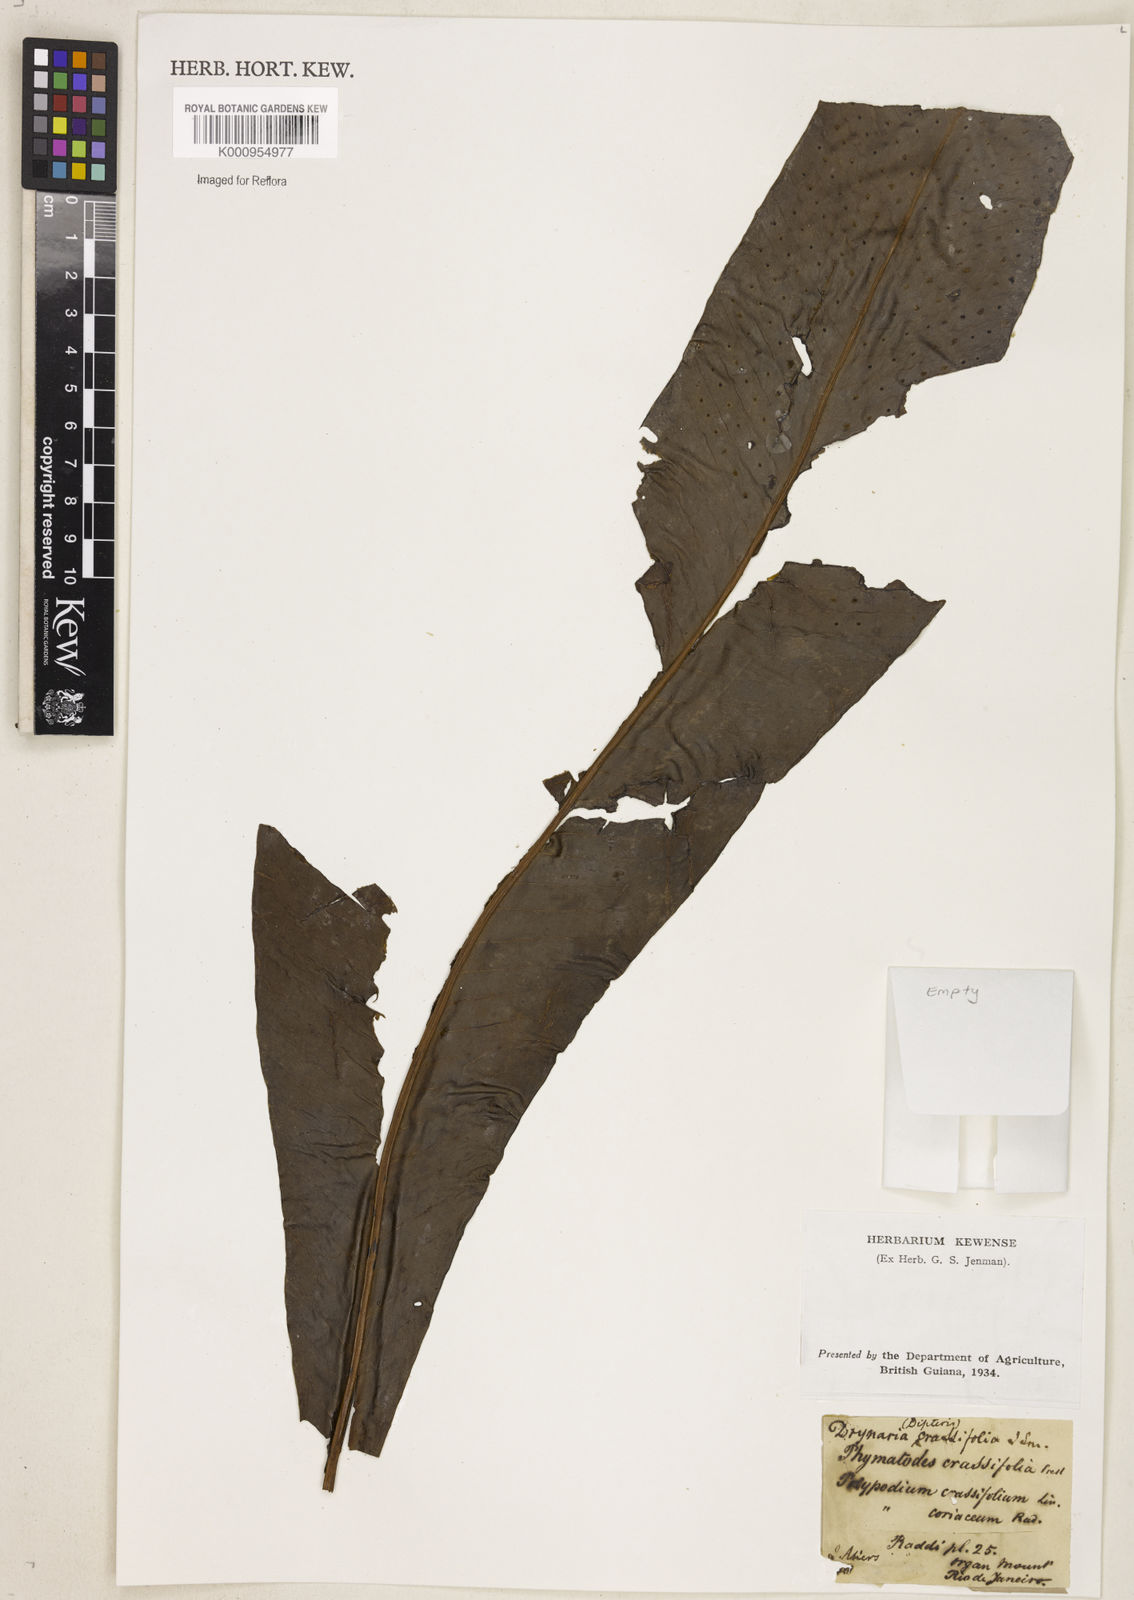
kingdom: Plantae
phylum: Tracheophyta
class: Polypodiopsida
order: Polypodiales
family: Polypodiaceae
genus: Niphidium
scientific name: Niphidium crassifolium
